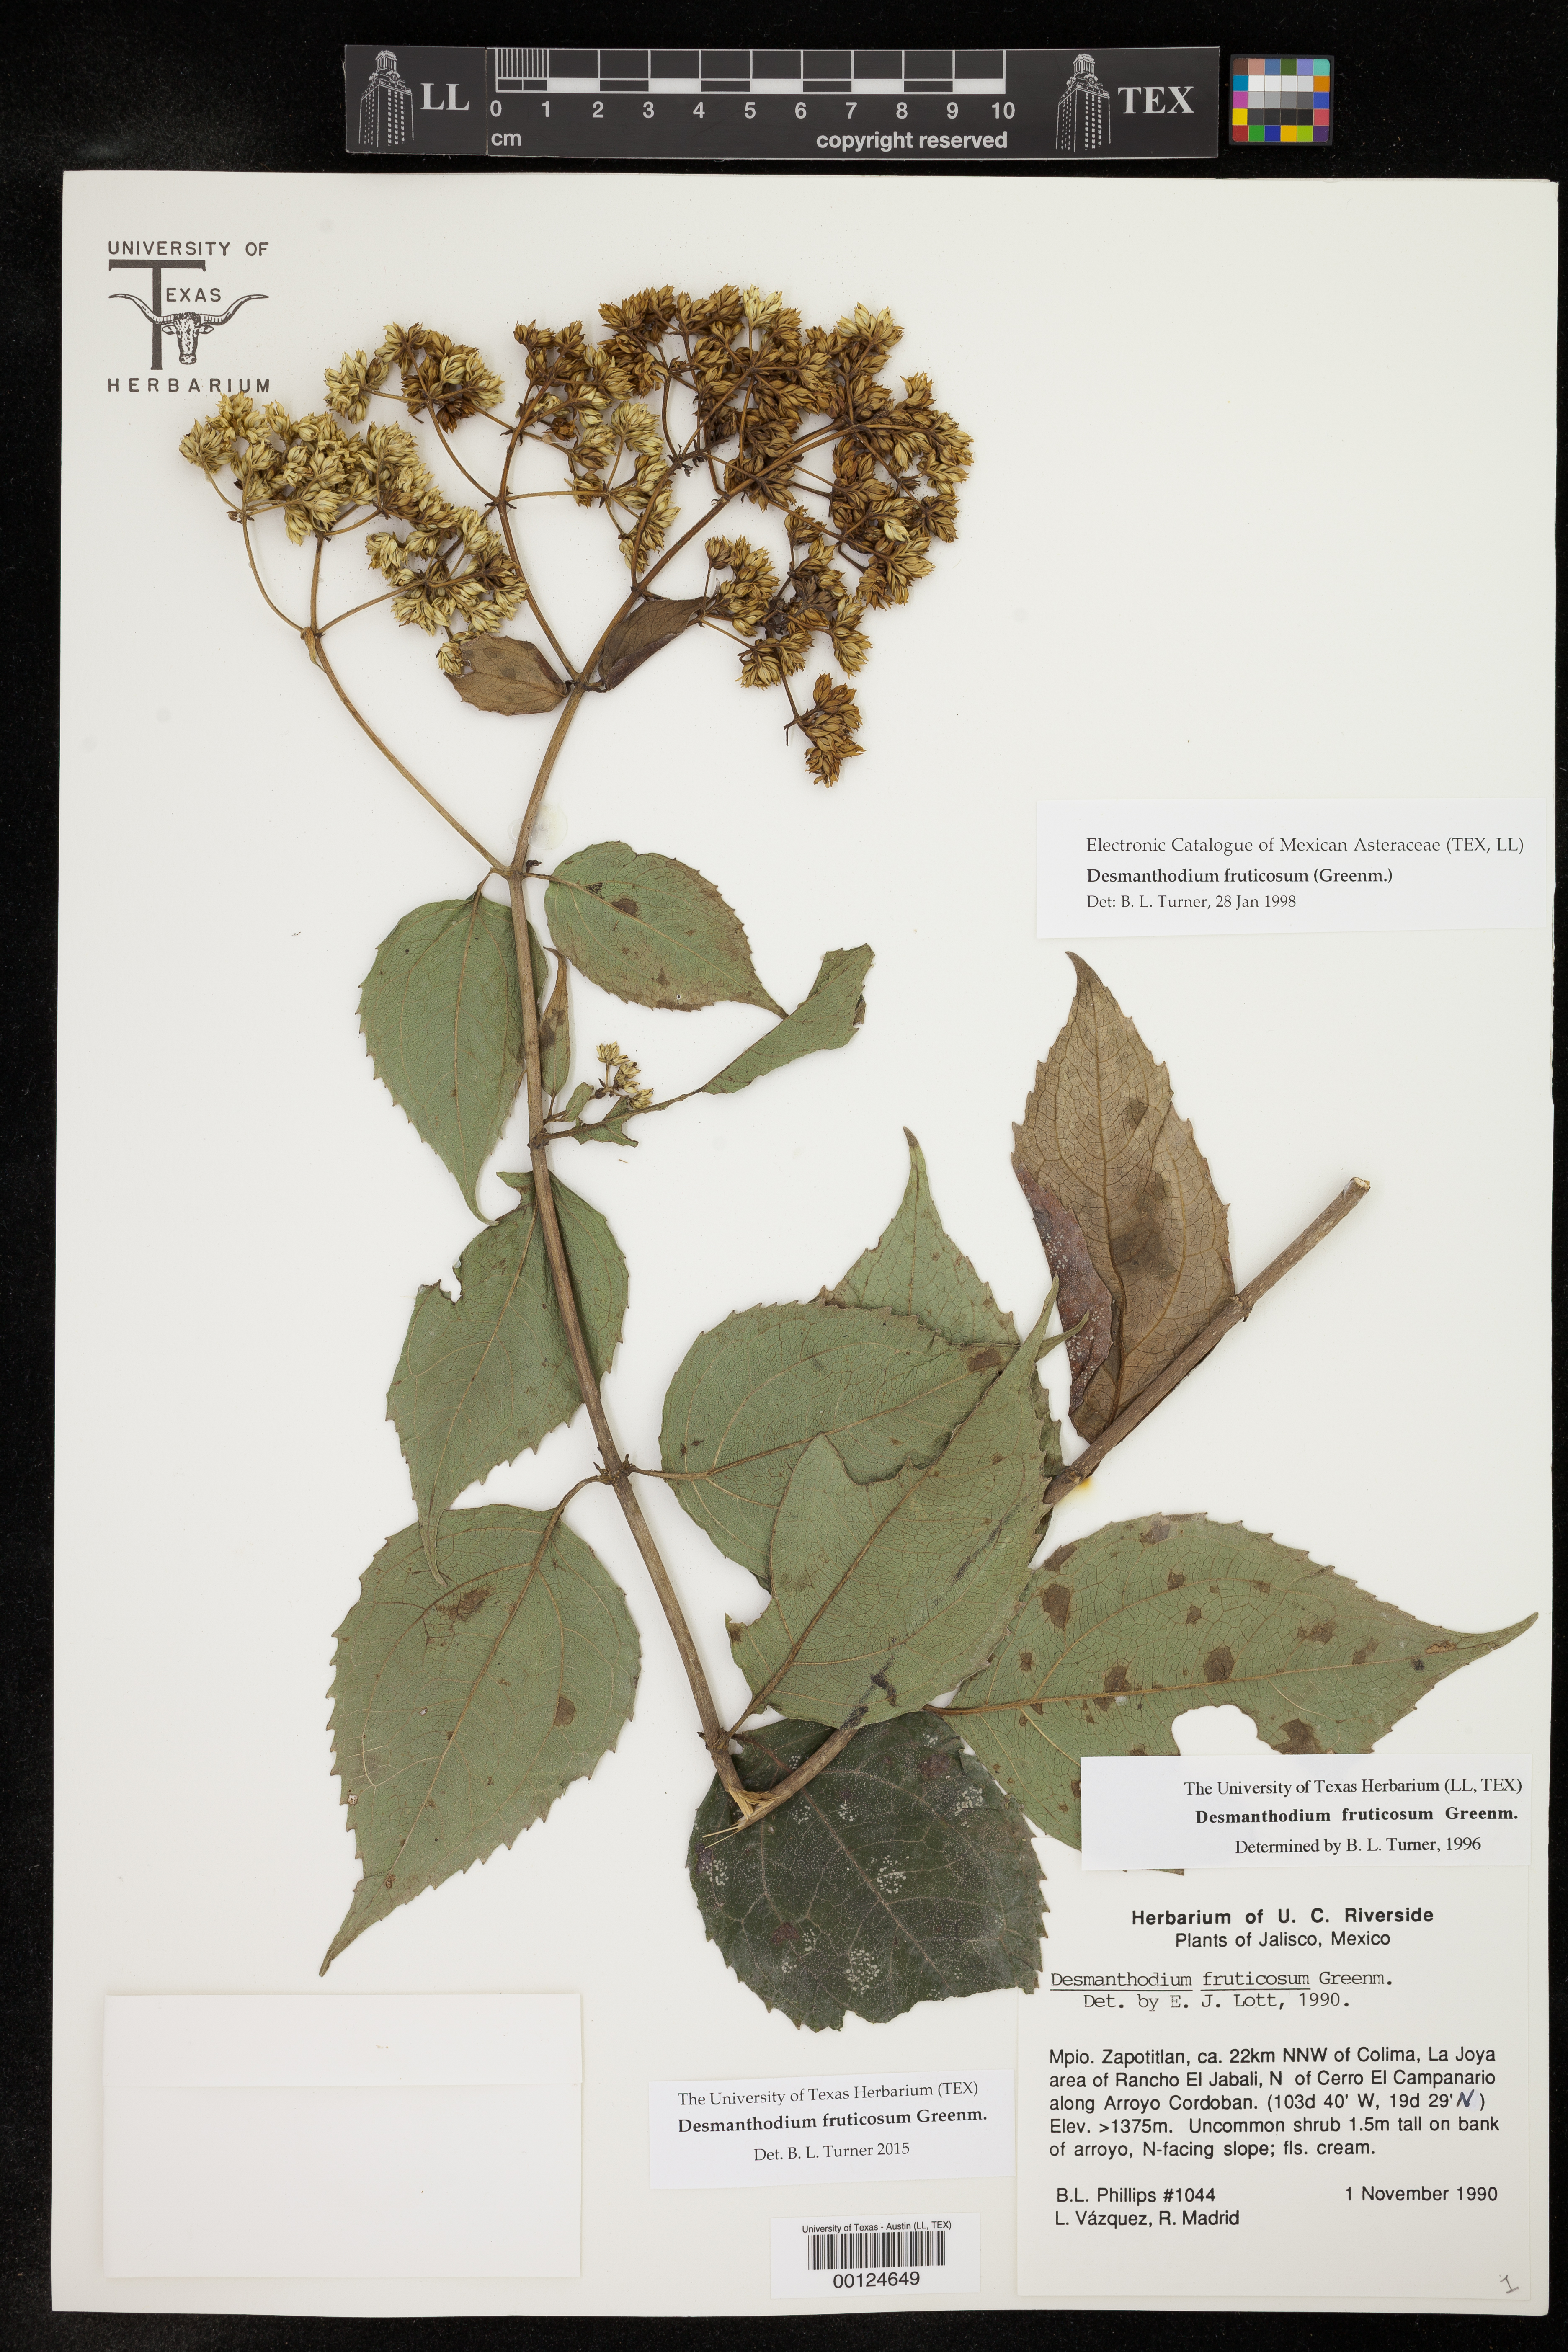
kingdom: Plantae
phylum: Tracheophyta
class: Magnoliopsida
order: Asterales
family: Asteraceae
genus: Desmanthodium
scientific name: Desmanthodium fruticosum
